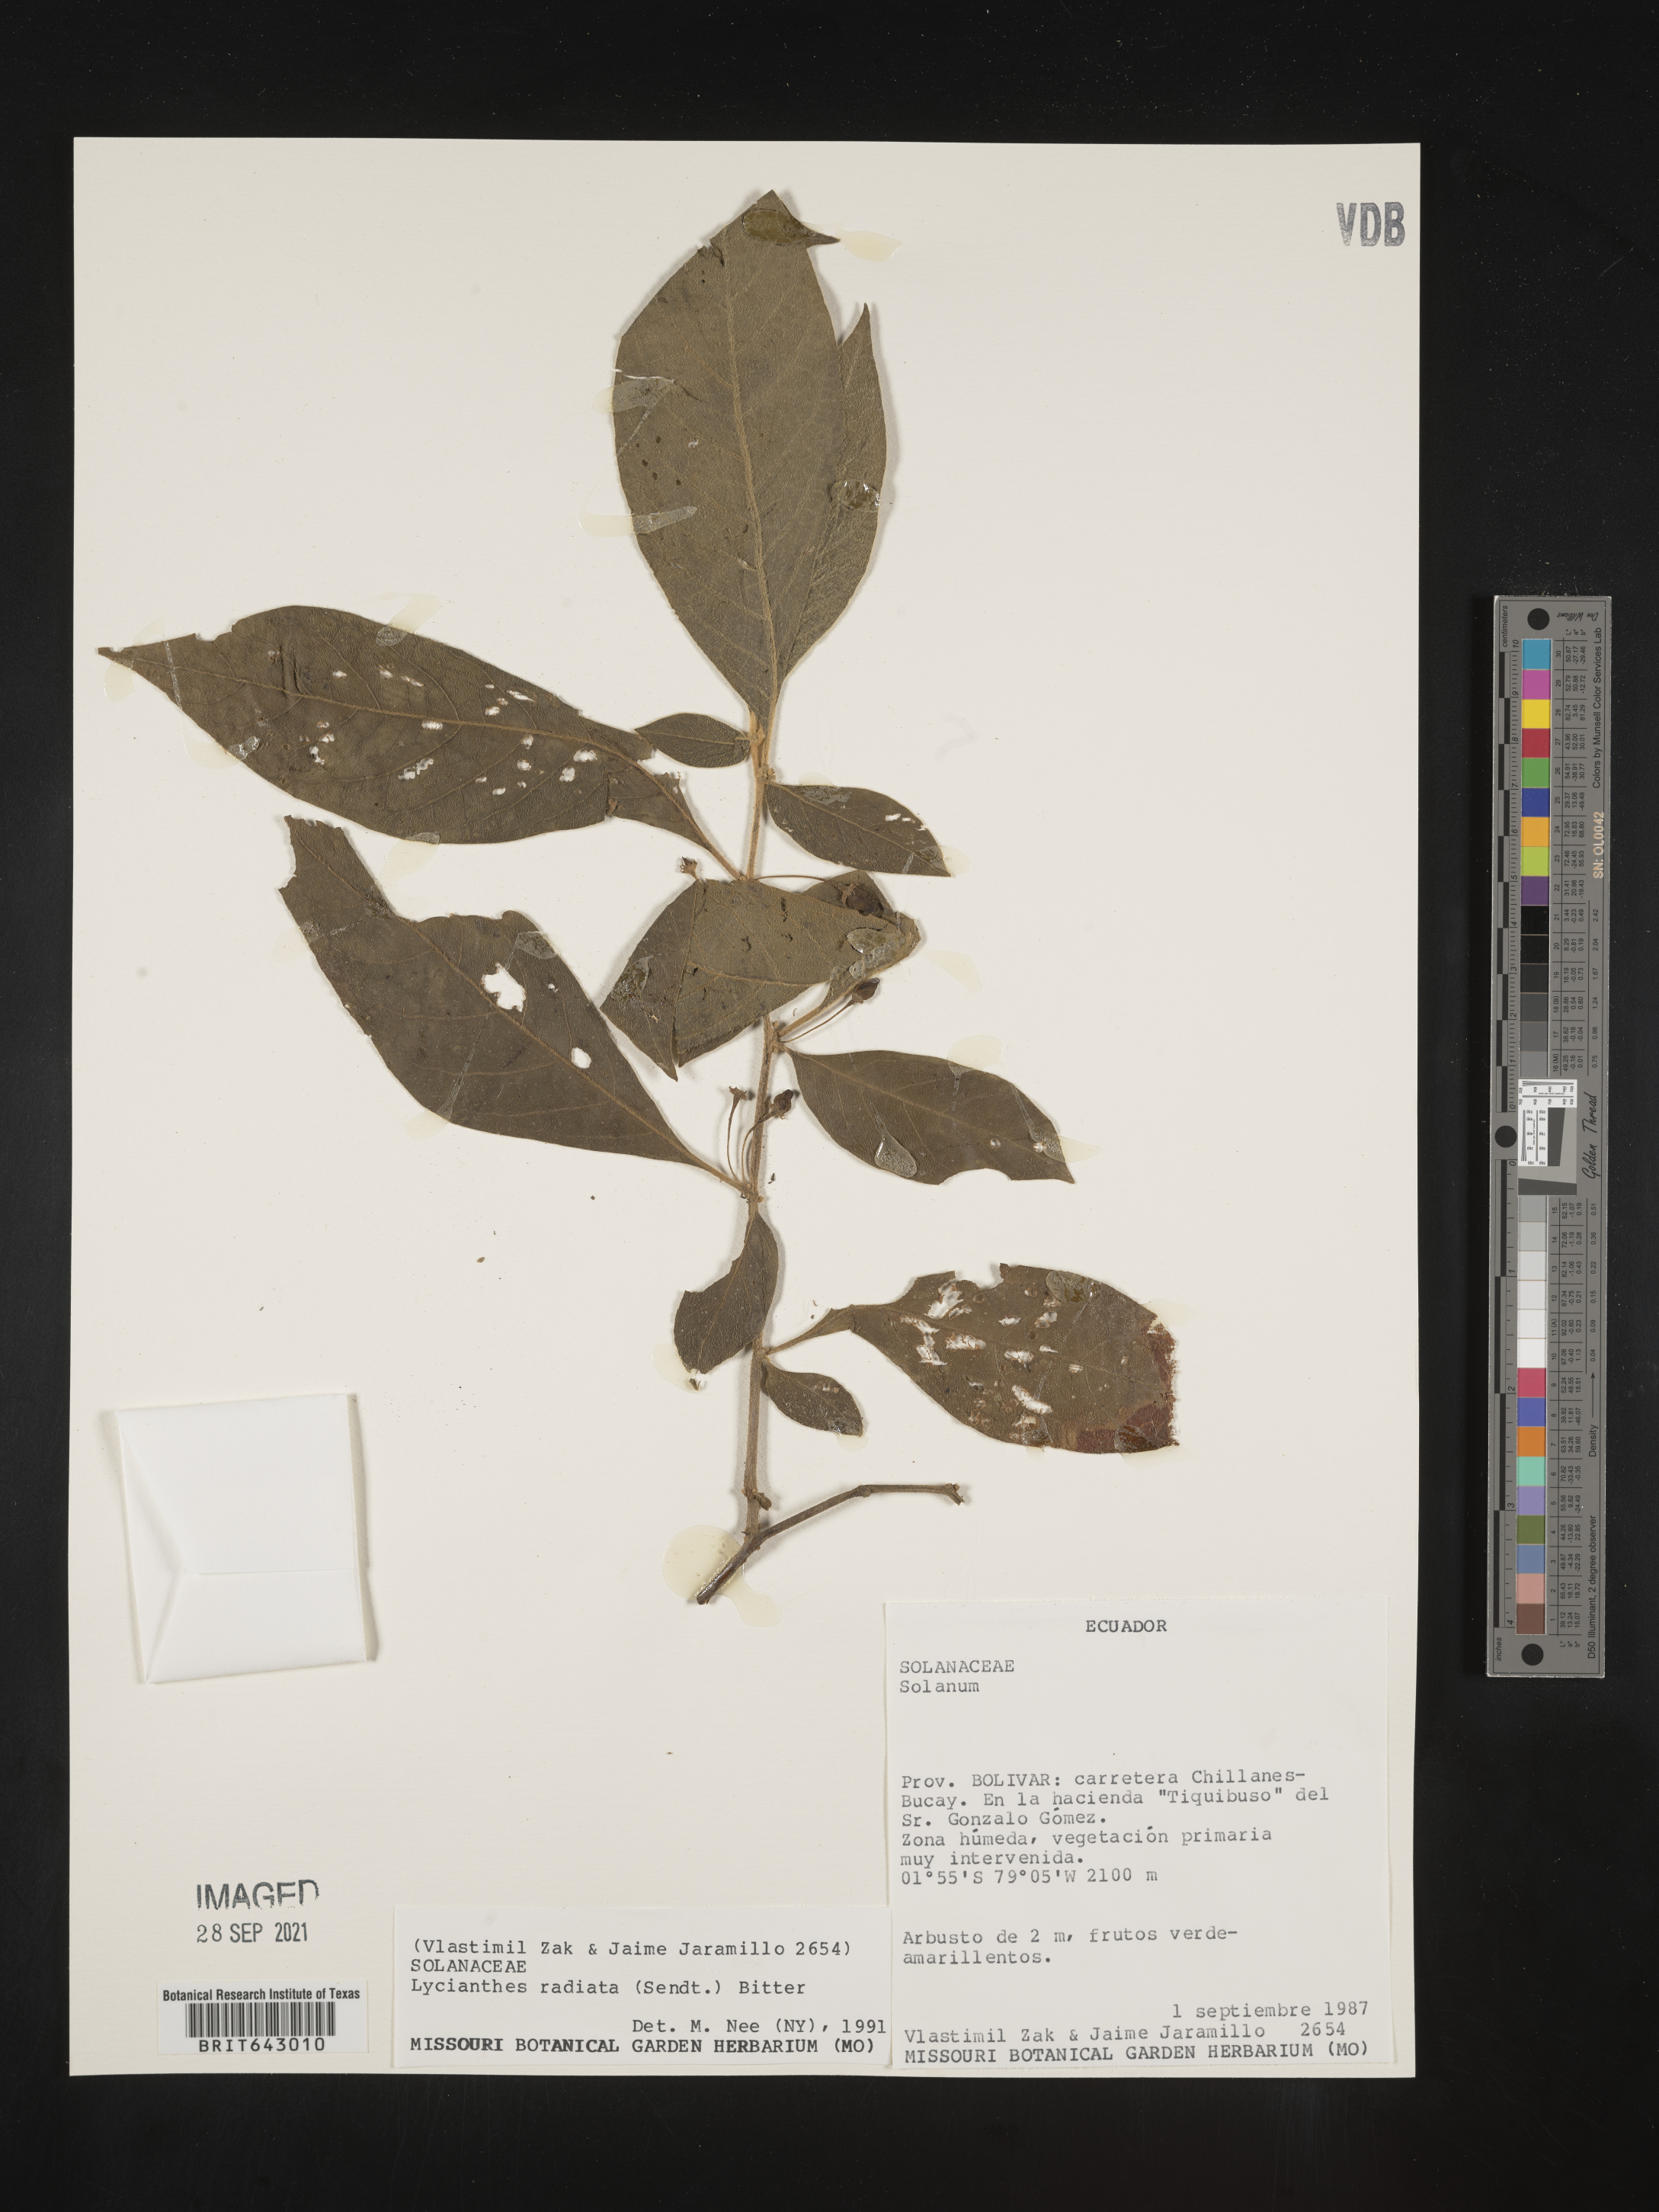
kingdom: Plantae
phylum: Tracheophyta
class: Magnoliopsida
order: Solanales
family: Solanaceae
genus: Lycianthes
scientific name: Lycianthes
